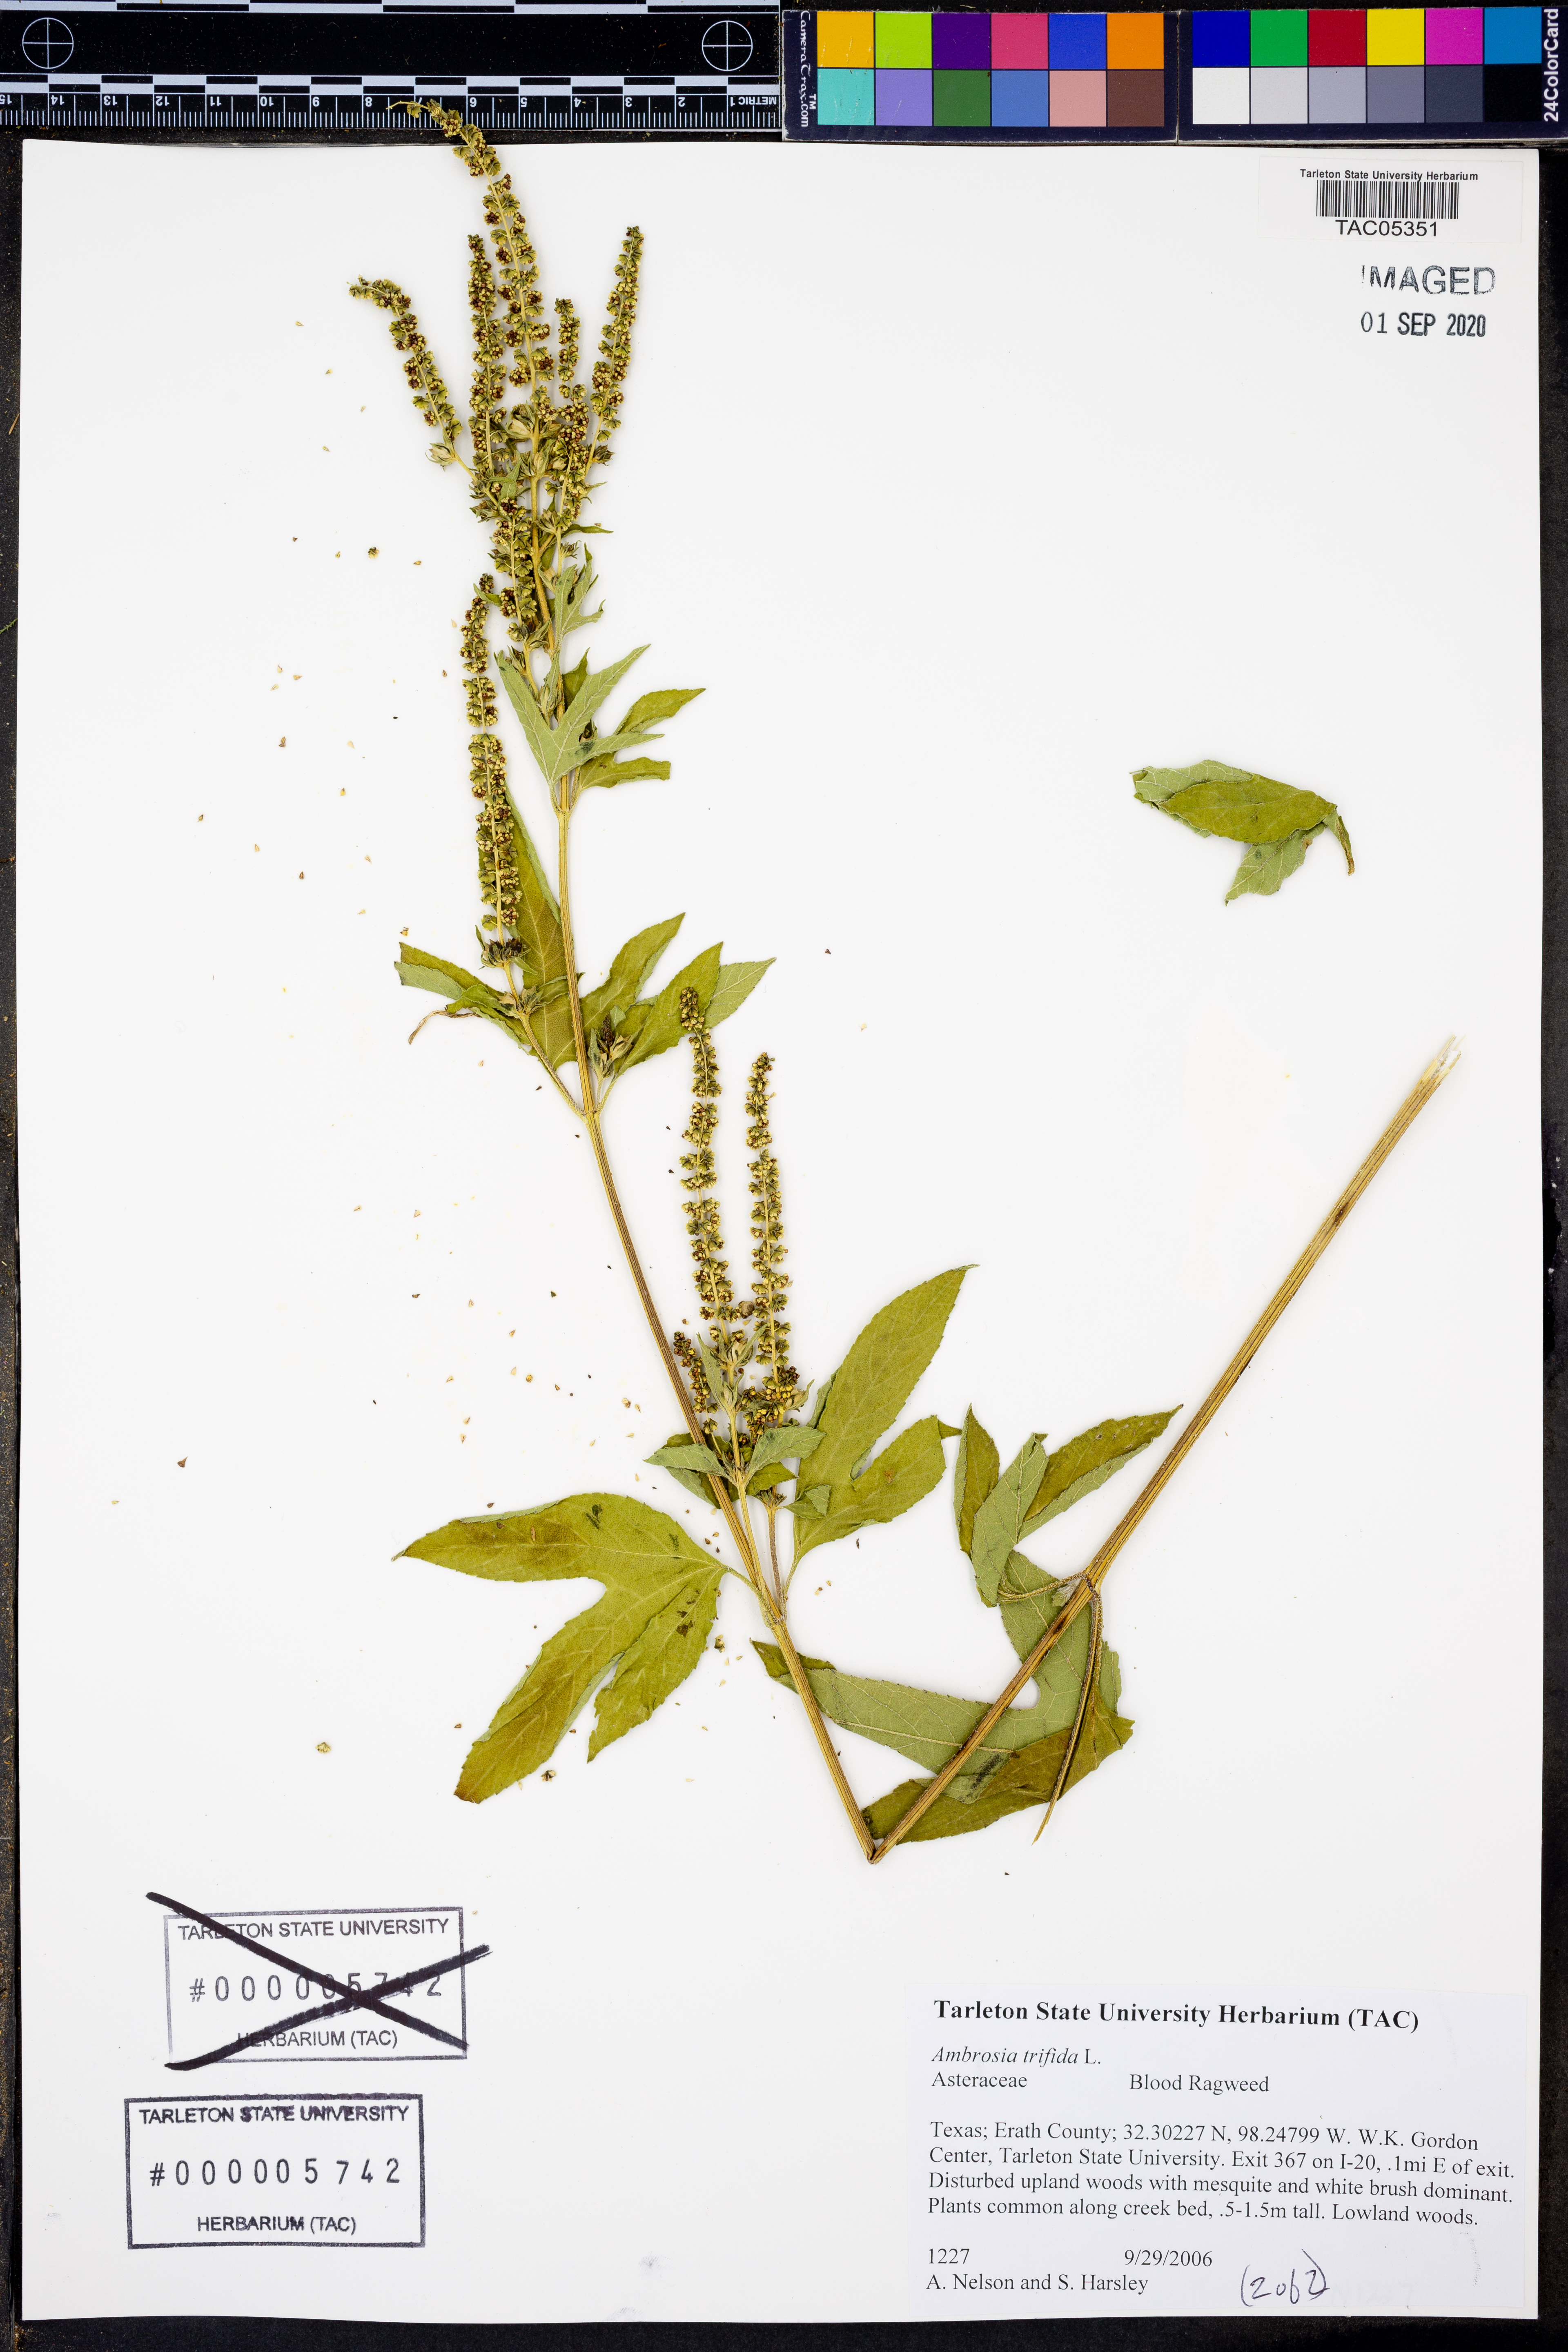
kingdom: Plantae
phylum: Tracheophyta
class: Magnoliopsida
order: Asterales
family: Asteraceae
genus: Ambrosia
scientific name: Ambrosia trifida
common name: Giant ragweed
